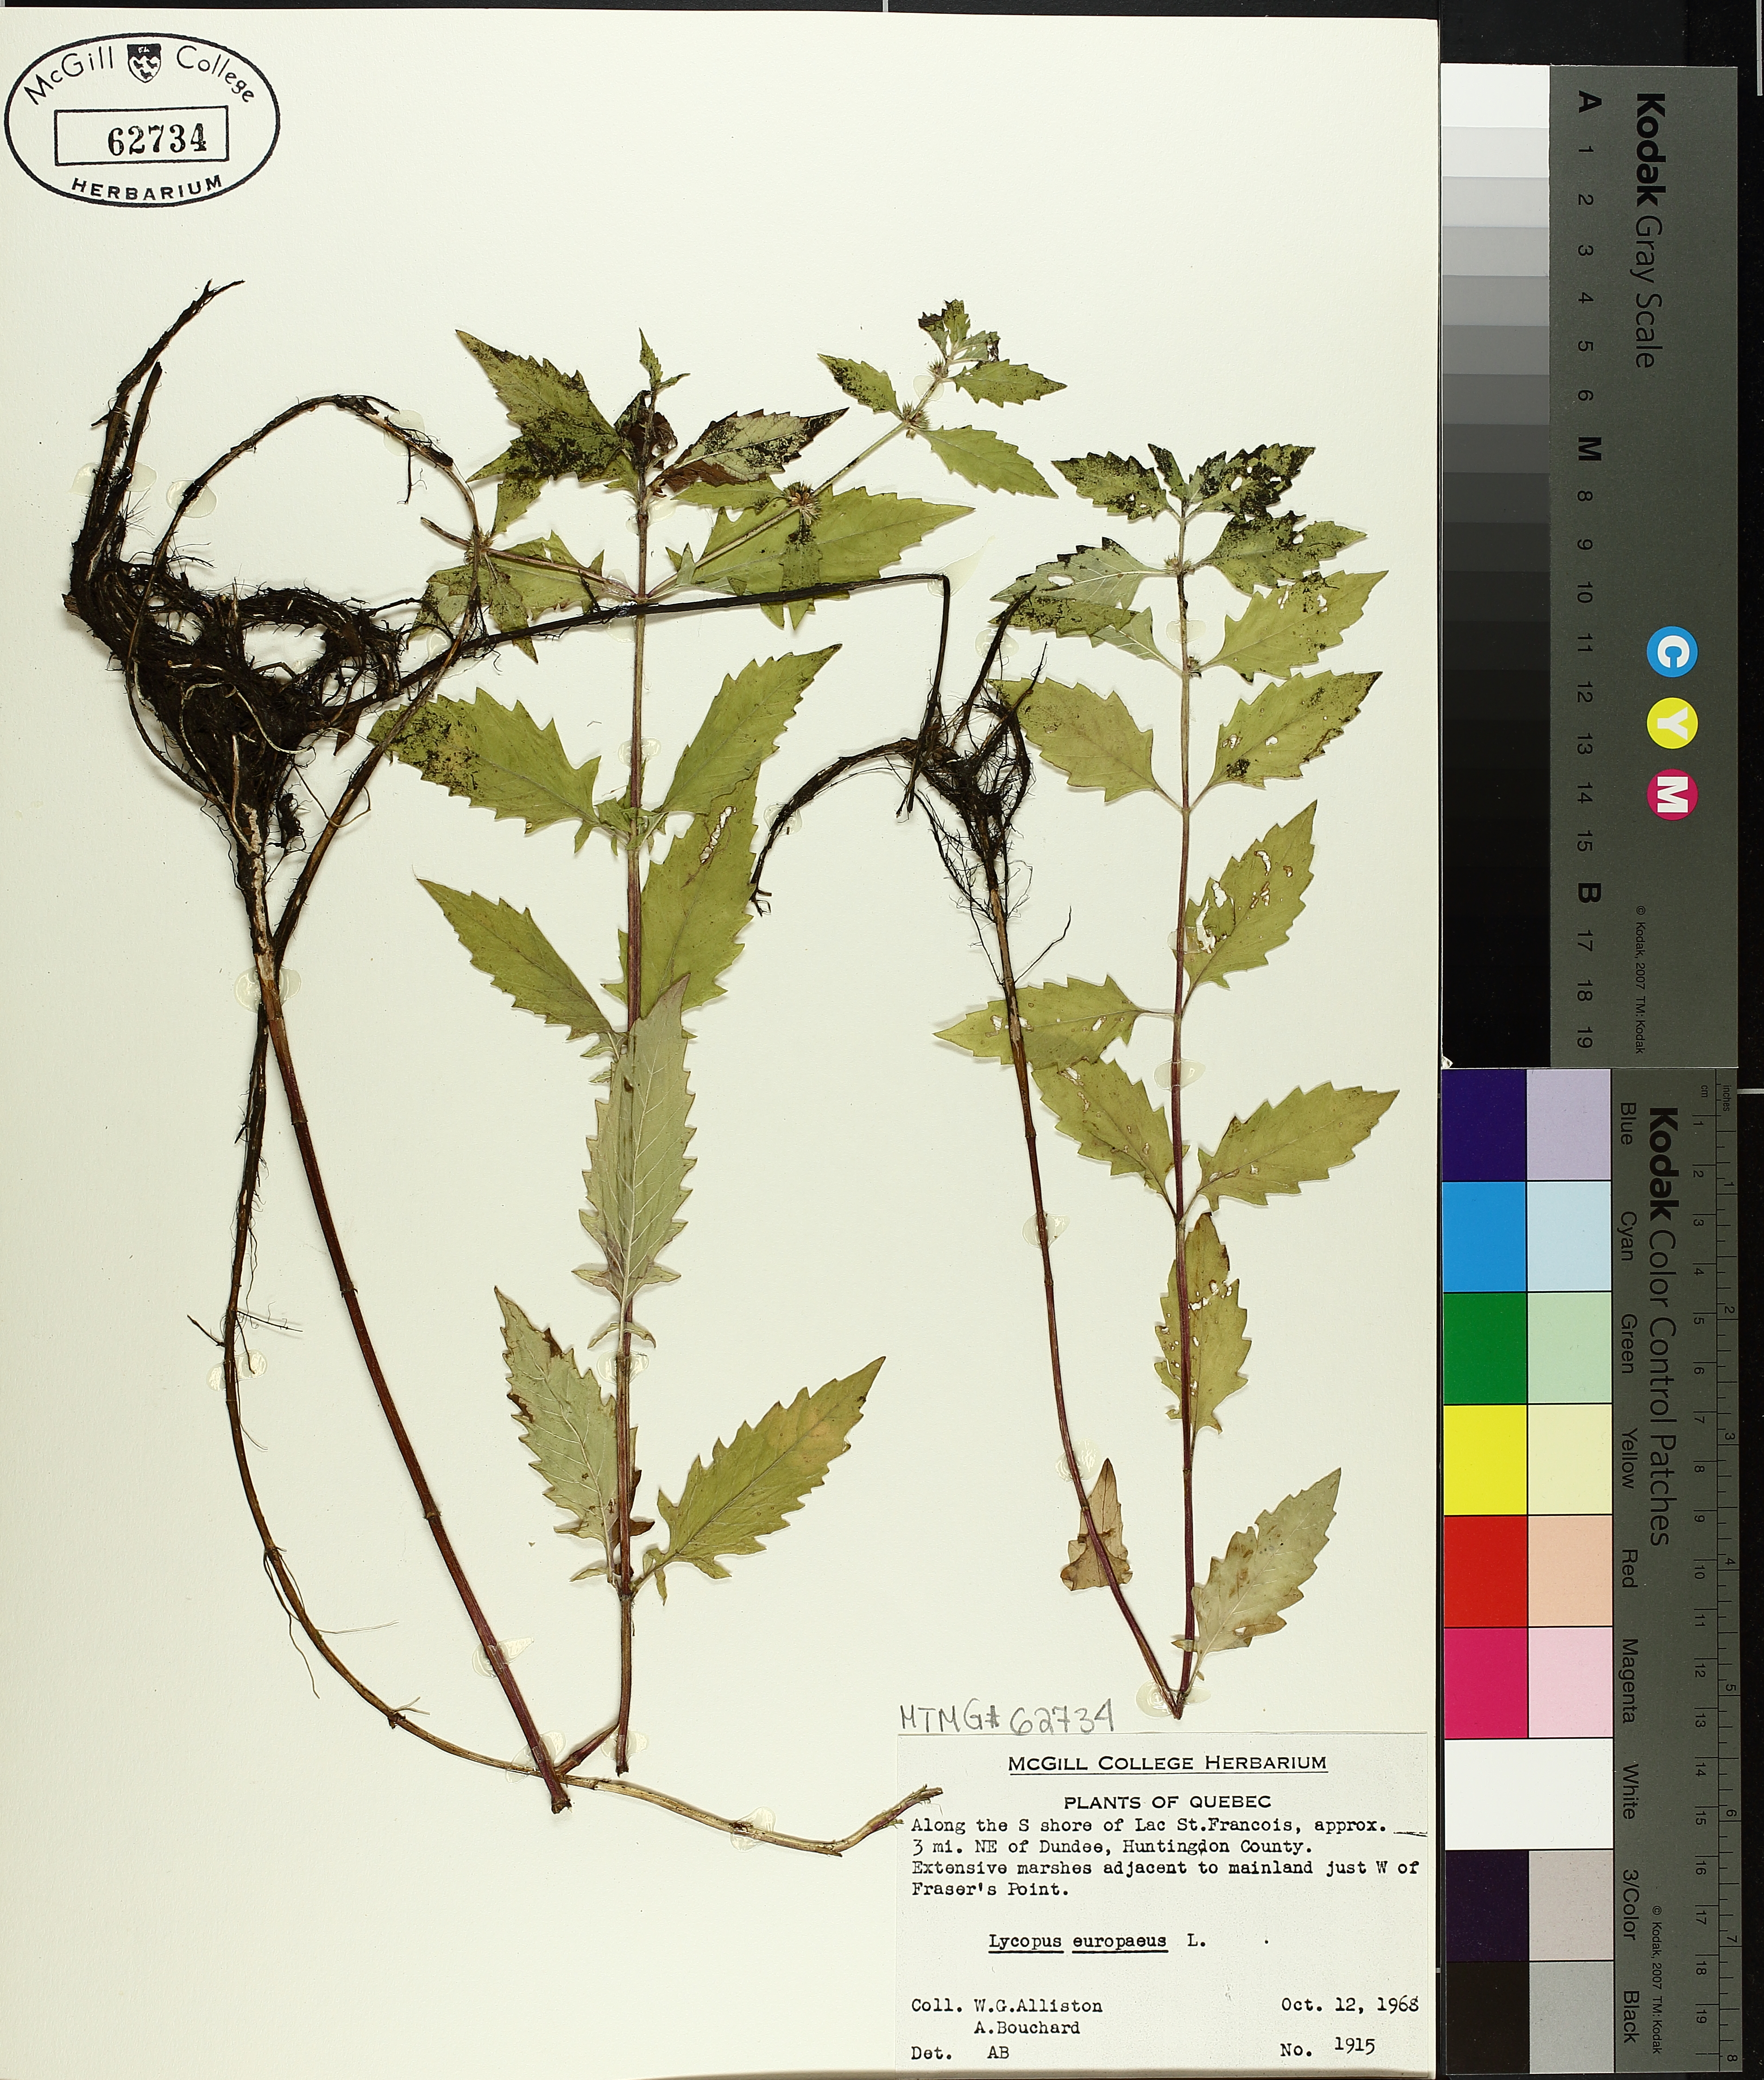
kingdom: Plantae
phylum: Tracheophyta
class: Magnoliopsida
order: Lamiales
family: Lamiaceae
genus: Lycopus
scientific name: Lycopus europaeus
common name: European bugleweed
